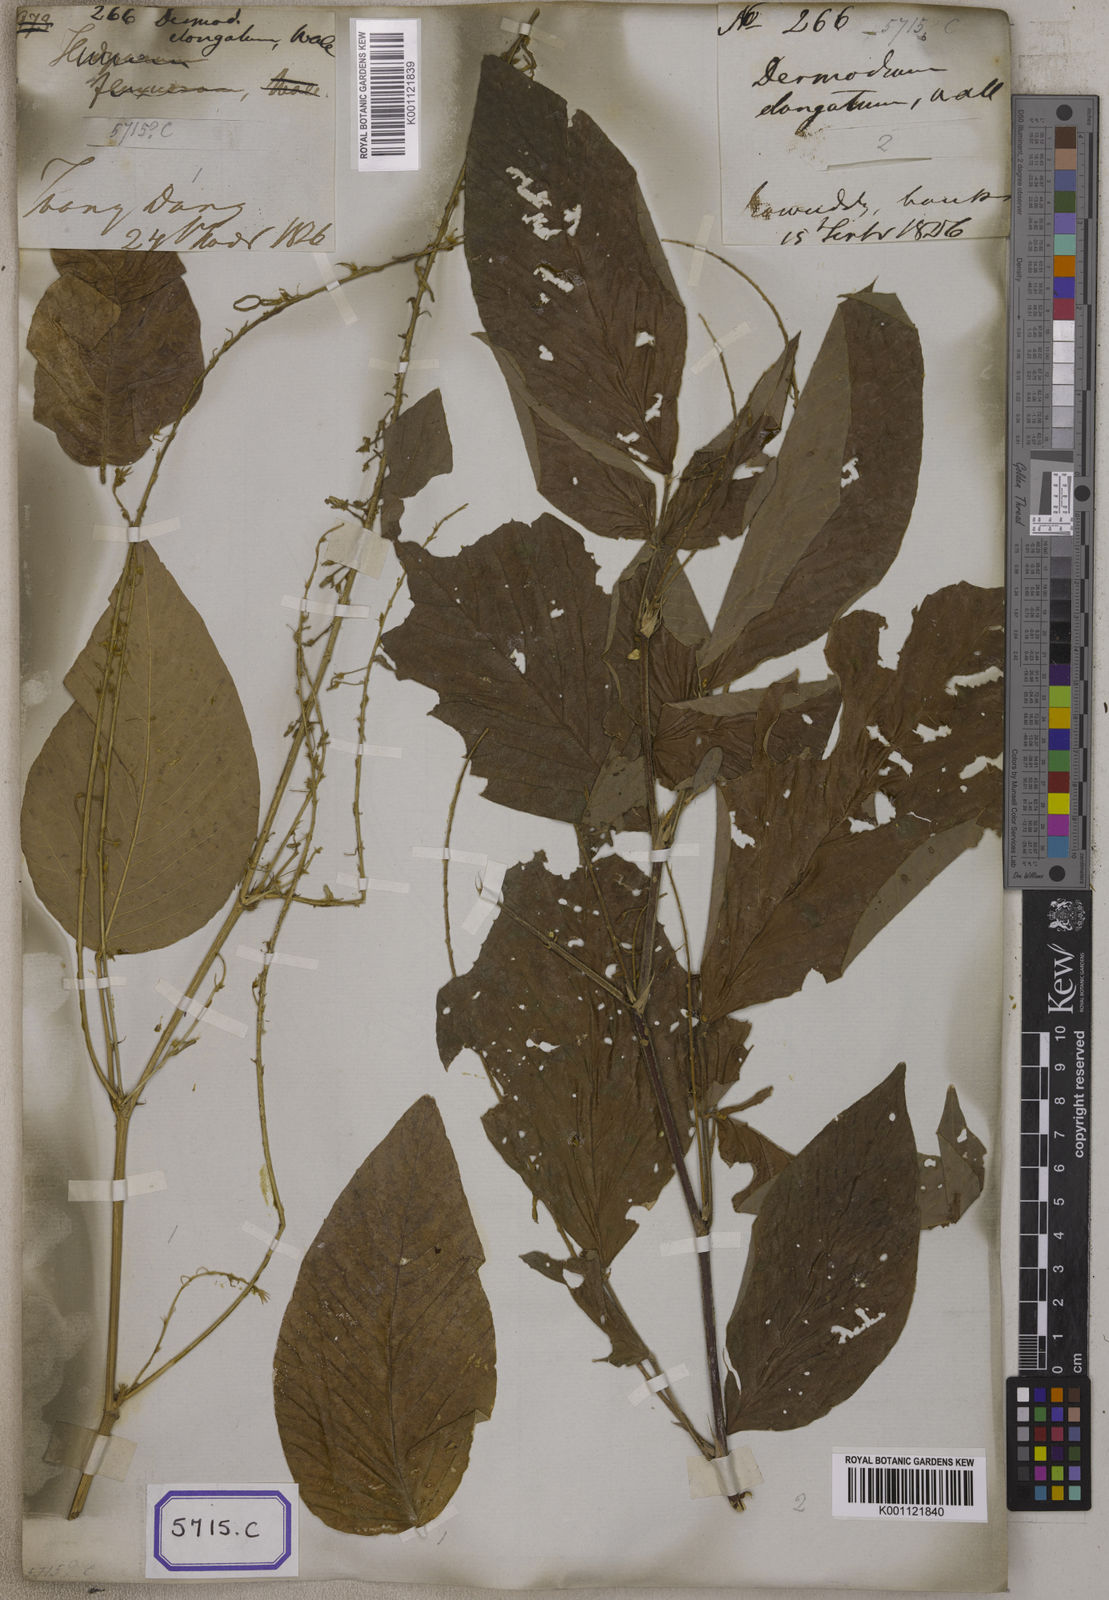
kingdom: Plantae
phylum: Tracheophyta
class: Magnoliopsida
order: Fabales
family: Fabaceae
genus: Desmodium
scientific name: Desmodium
